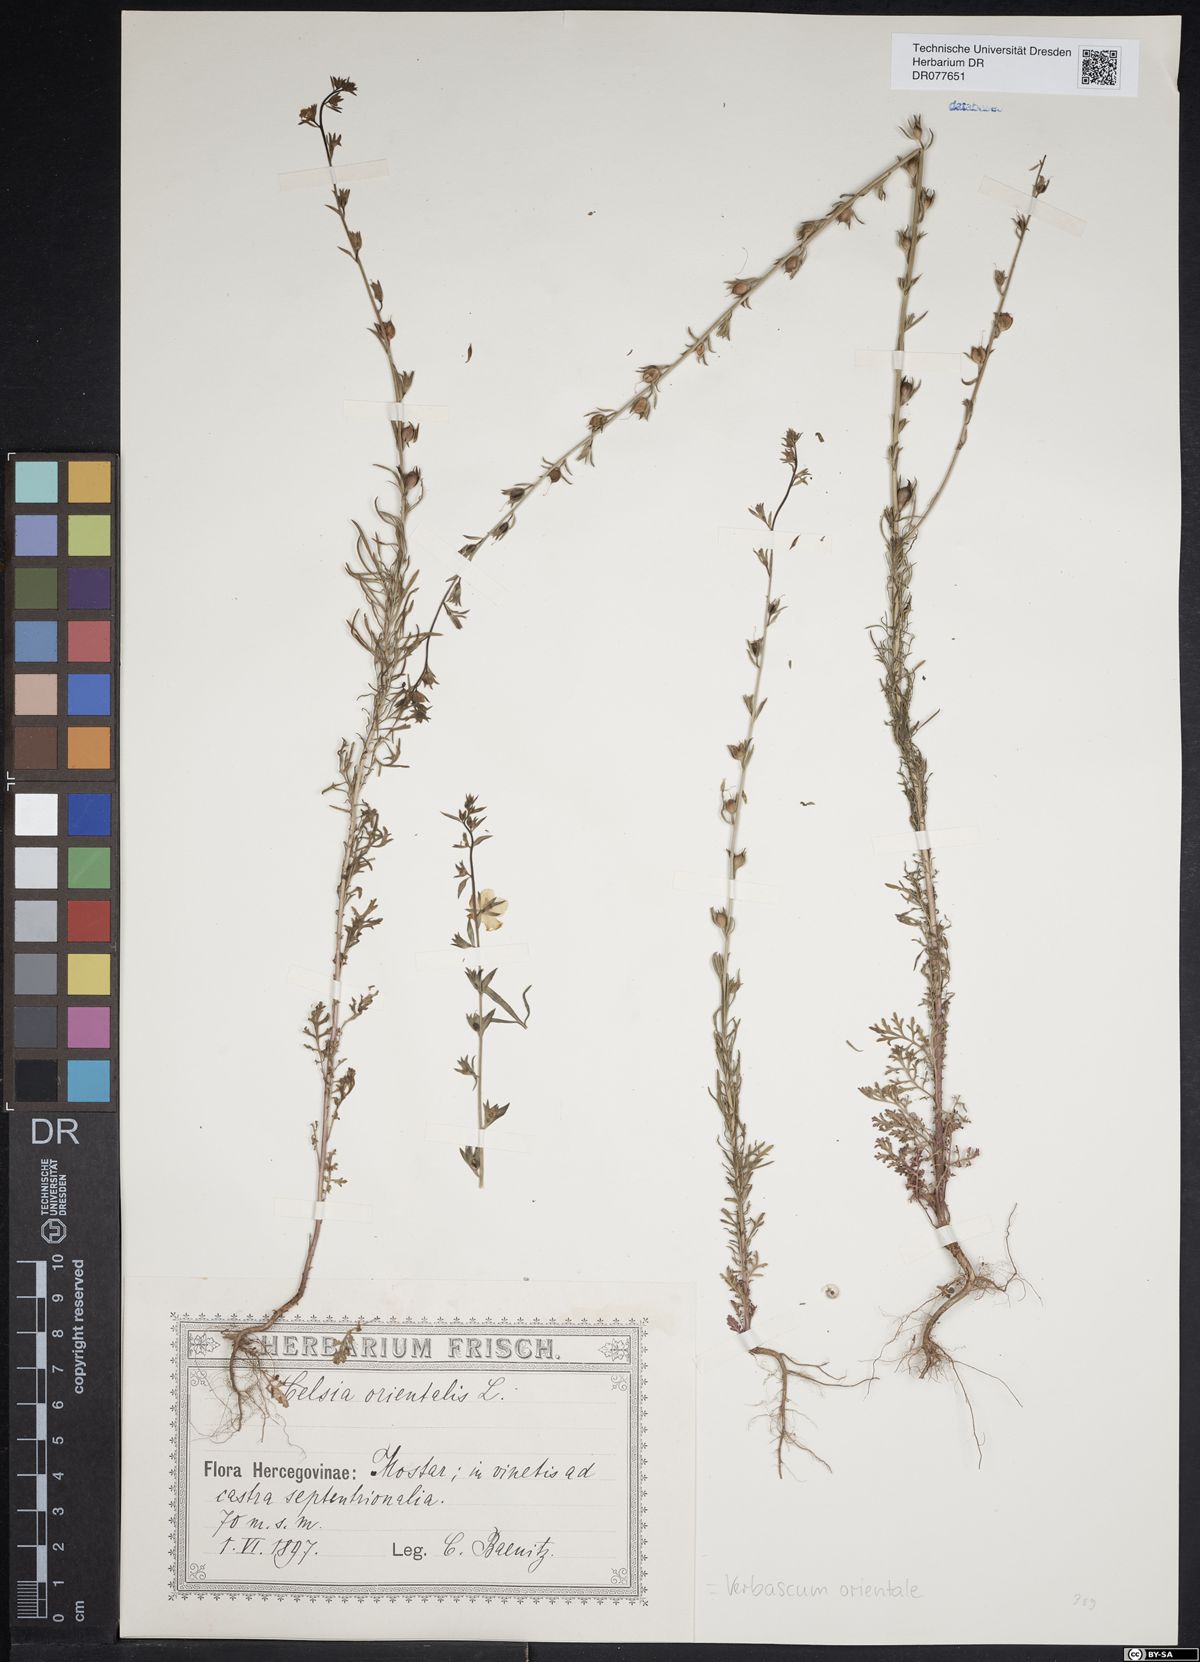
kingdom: Plantae
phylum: Tracheophyta
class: Magnoliopsida
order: Lamiales
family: Scrophulariaceae
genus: Verbascum
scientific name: Verbascum orientale
